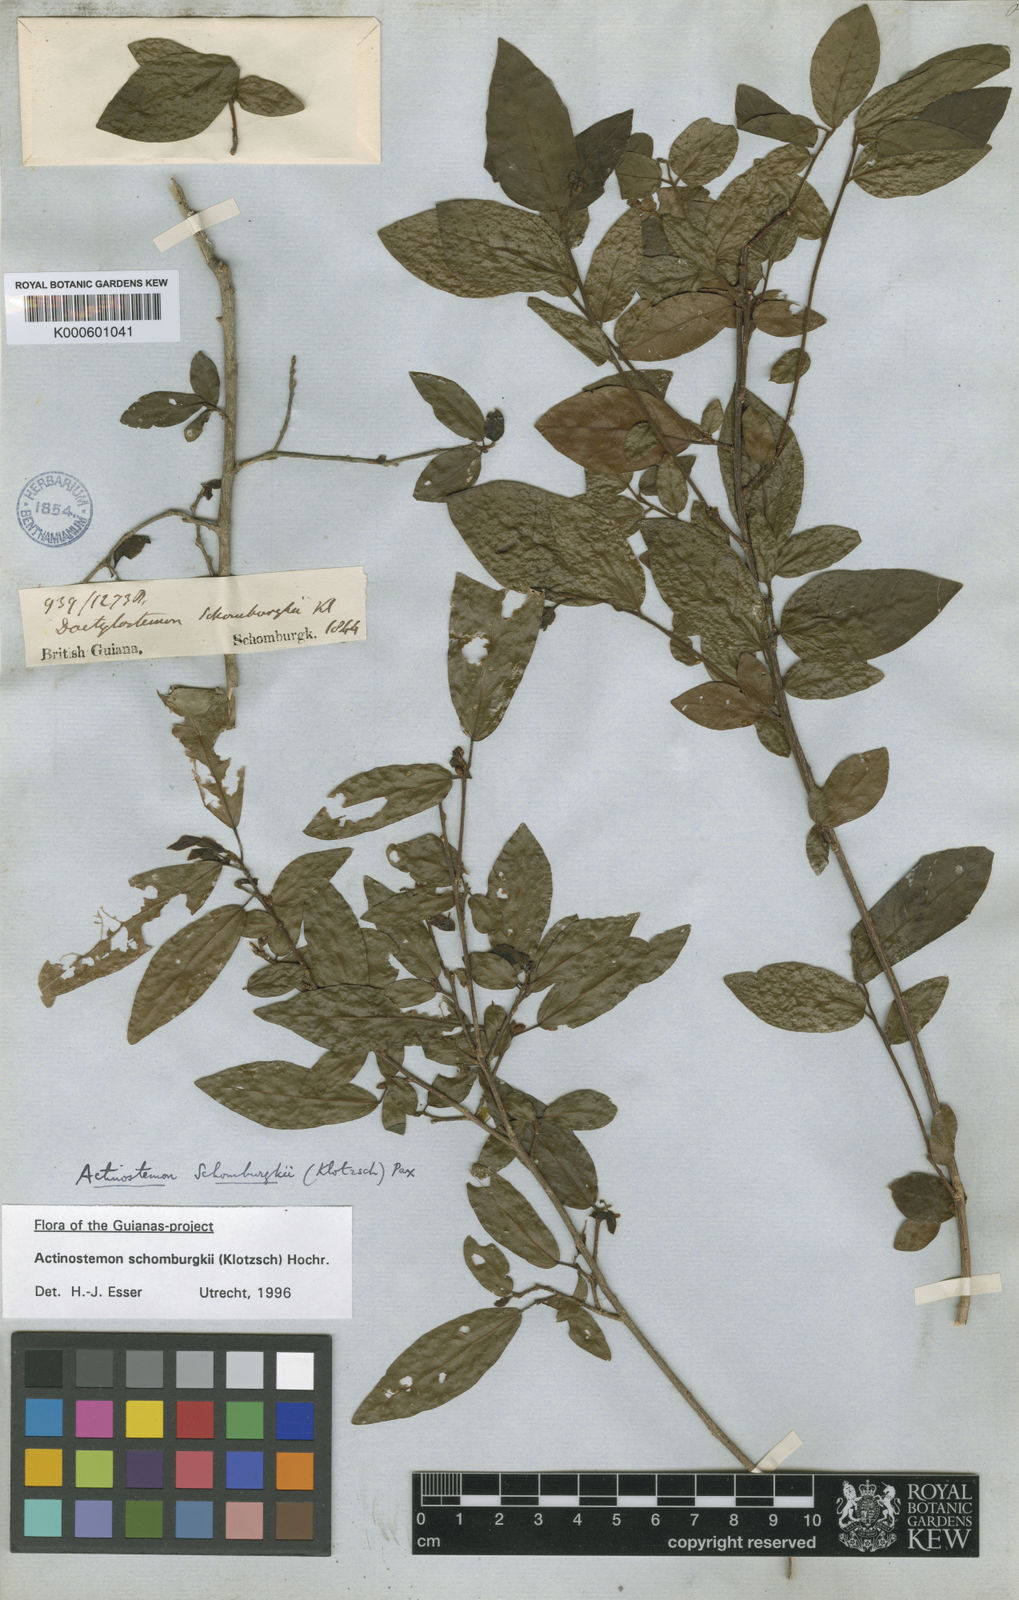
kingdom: Plantae
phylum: Tracheophyta
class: Magnoliopsida
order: Malpighiales
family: Euphorbiaceae
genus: Actinostemon
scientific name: Actinostemon schomburgkii
